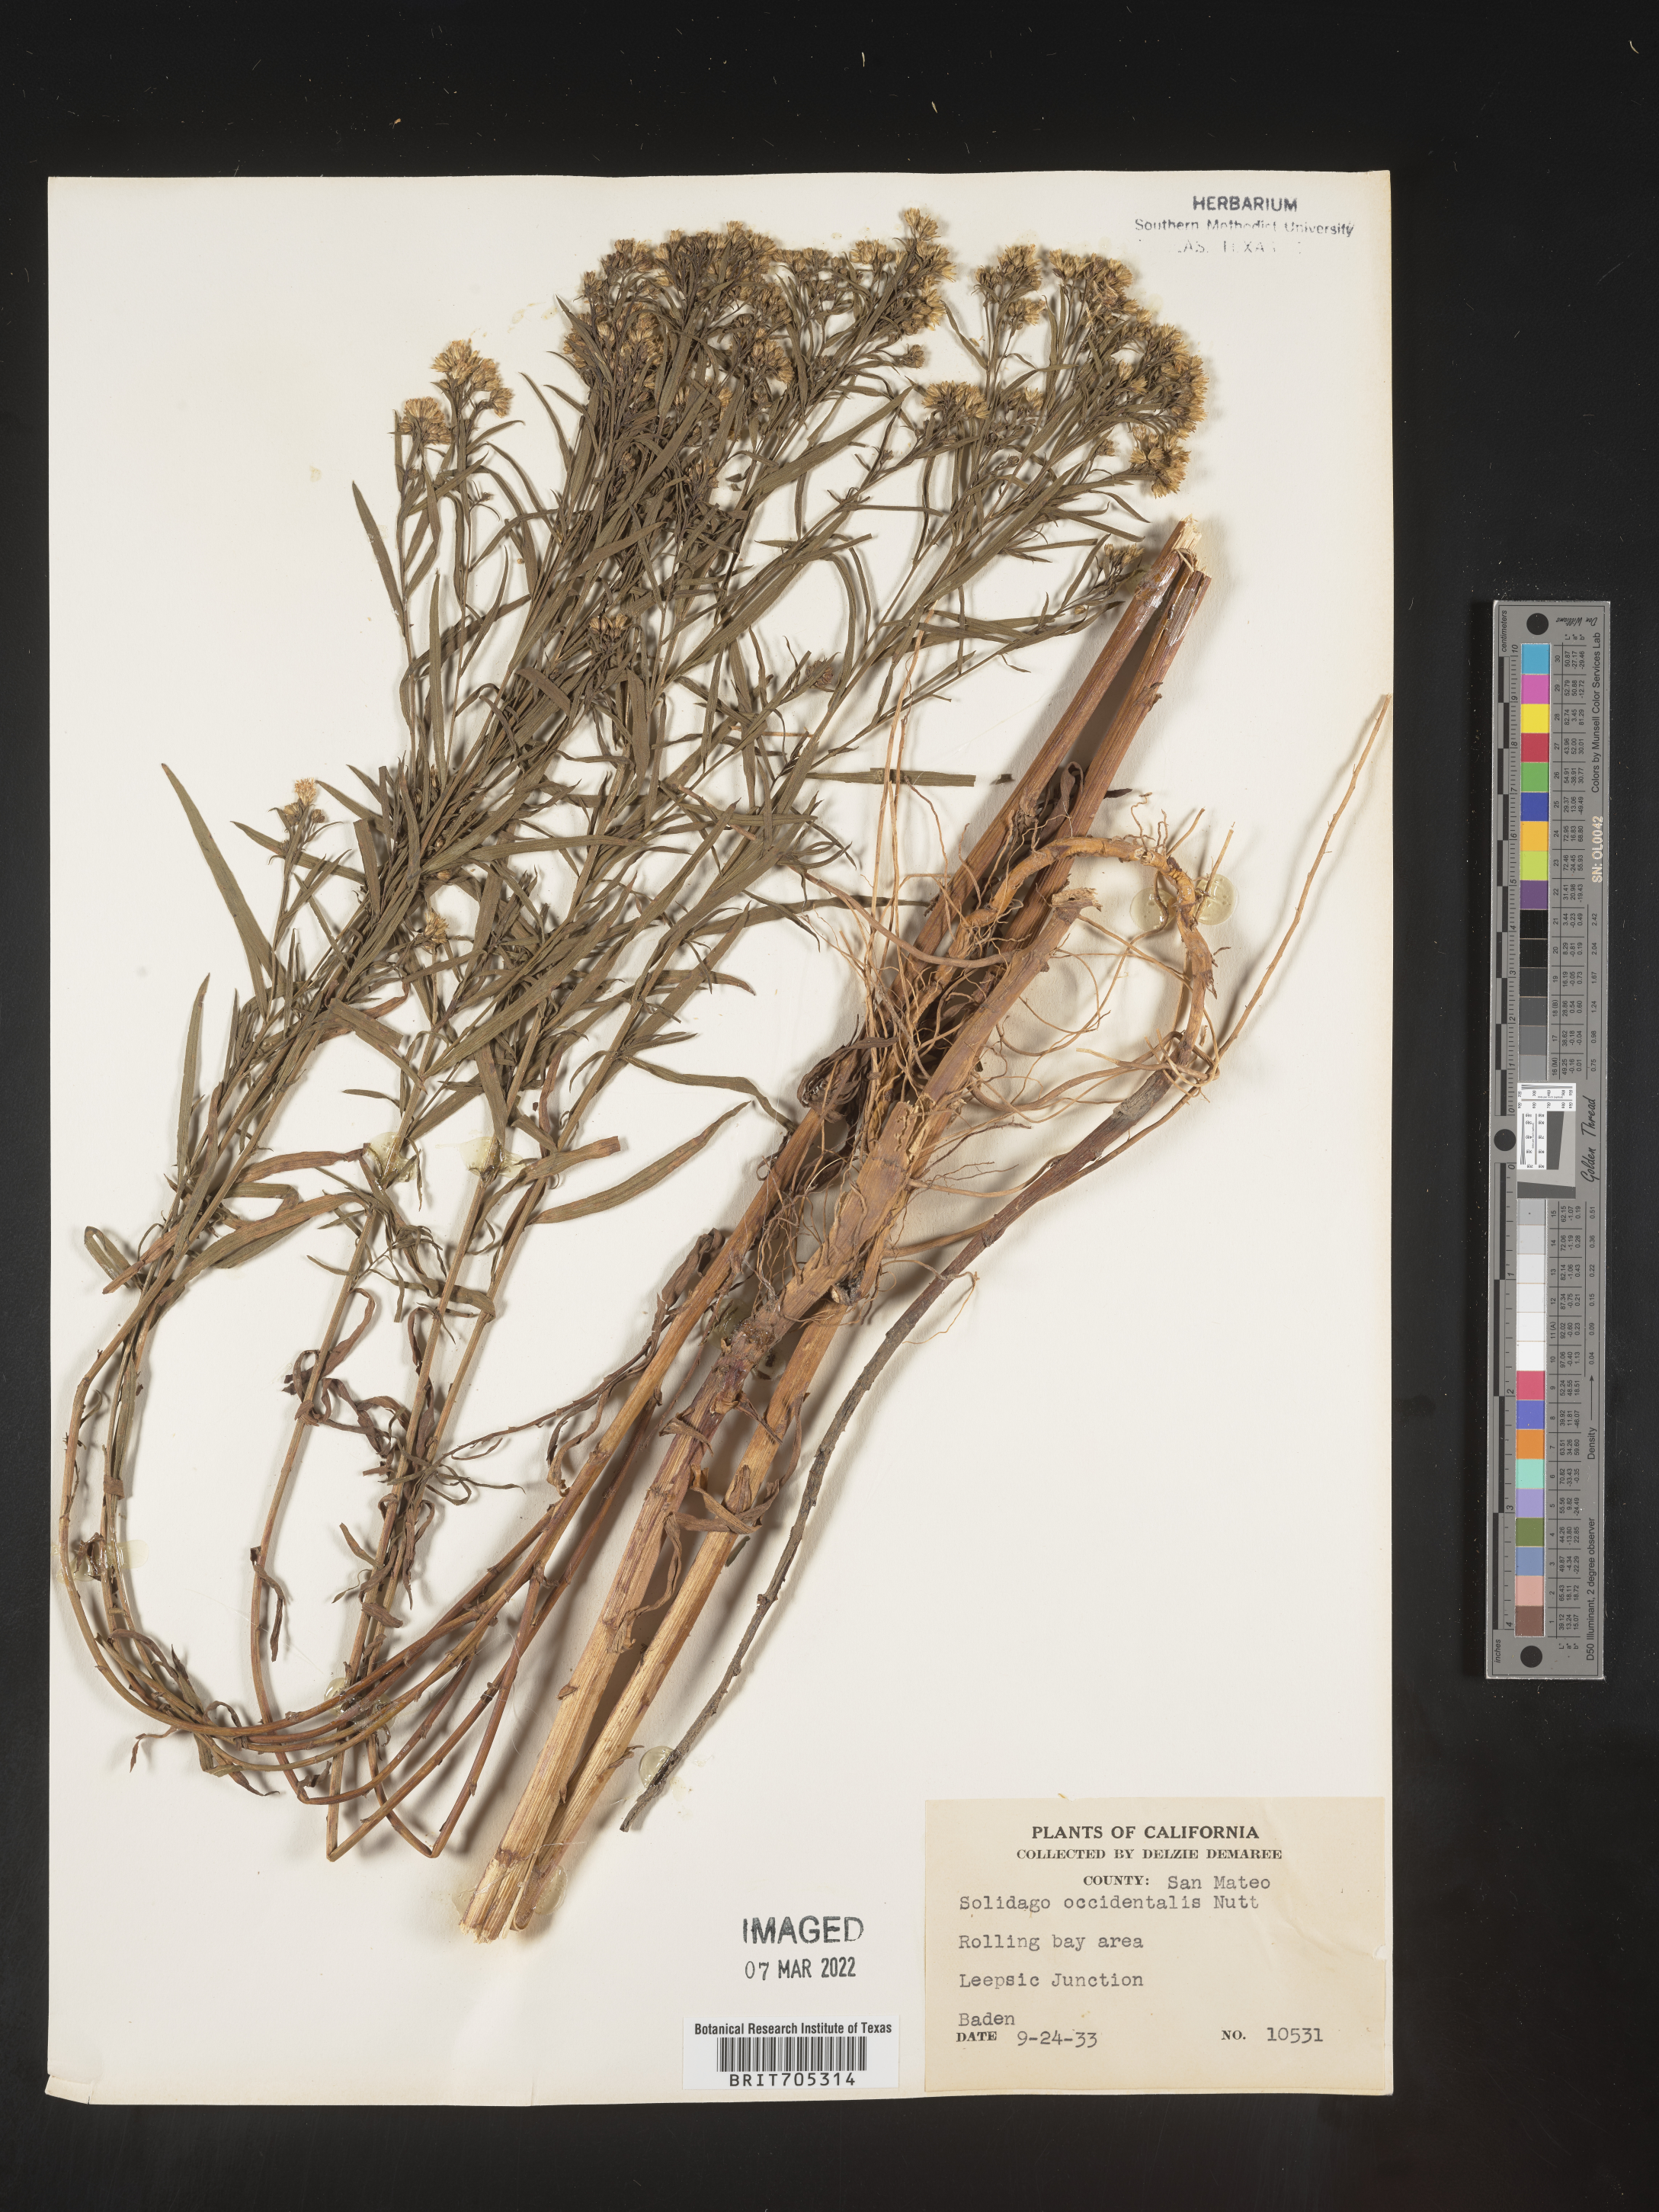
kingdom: Plantae
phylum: Tracheophyta
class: Magnoliopsida
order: Asterales
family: Asteraceae
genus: Euthamia
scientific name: Euthamia occidentalis
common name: Western goldentop
